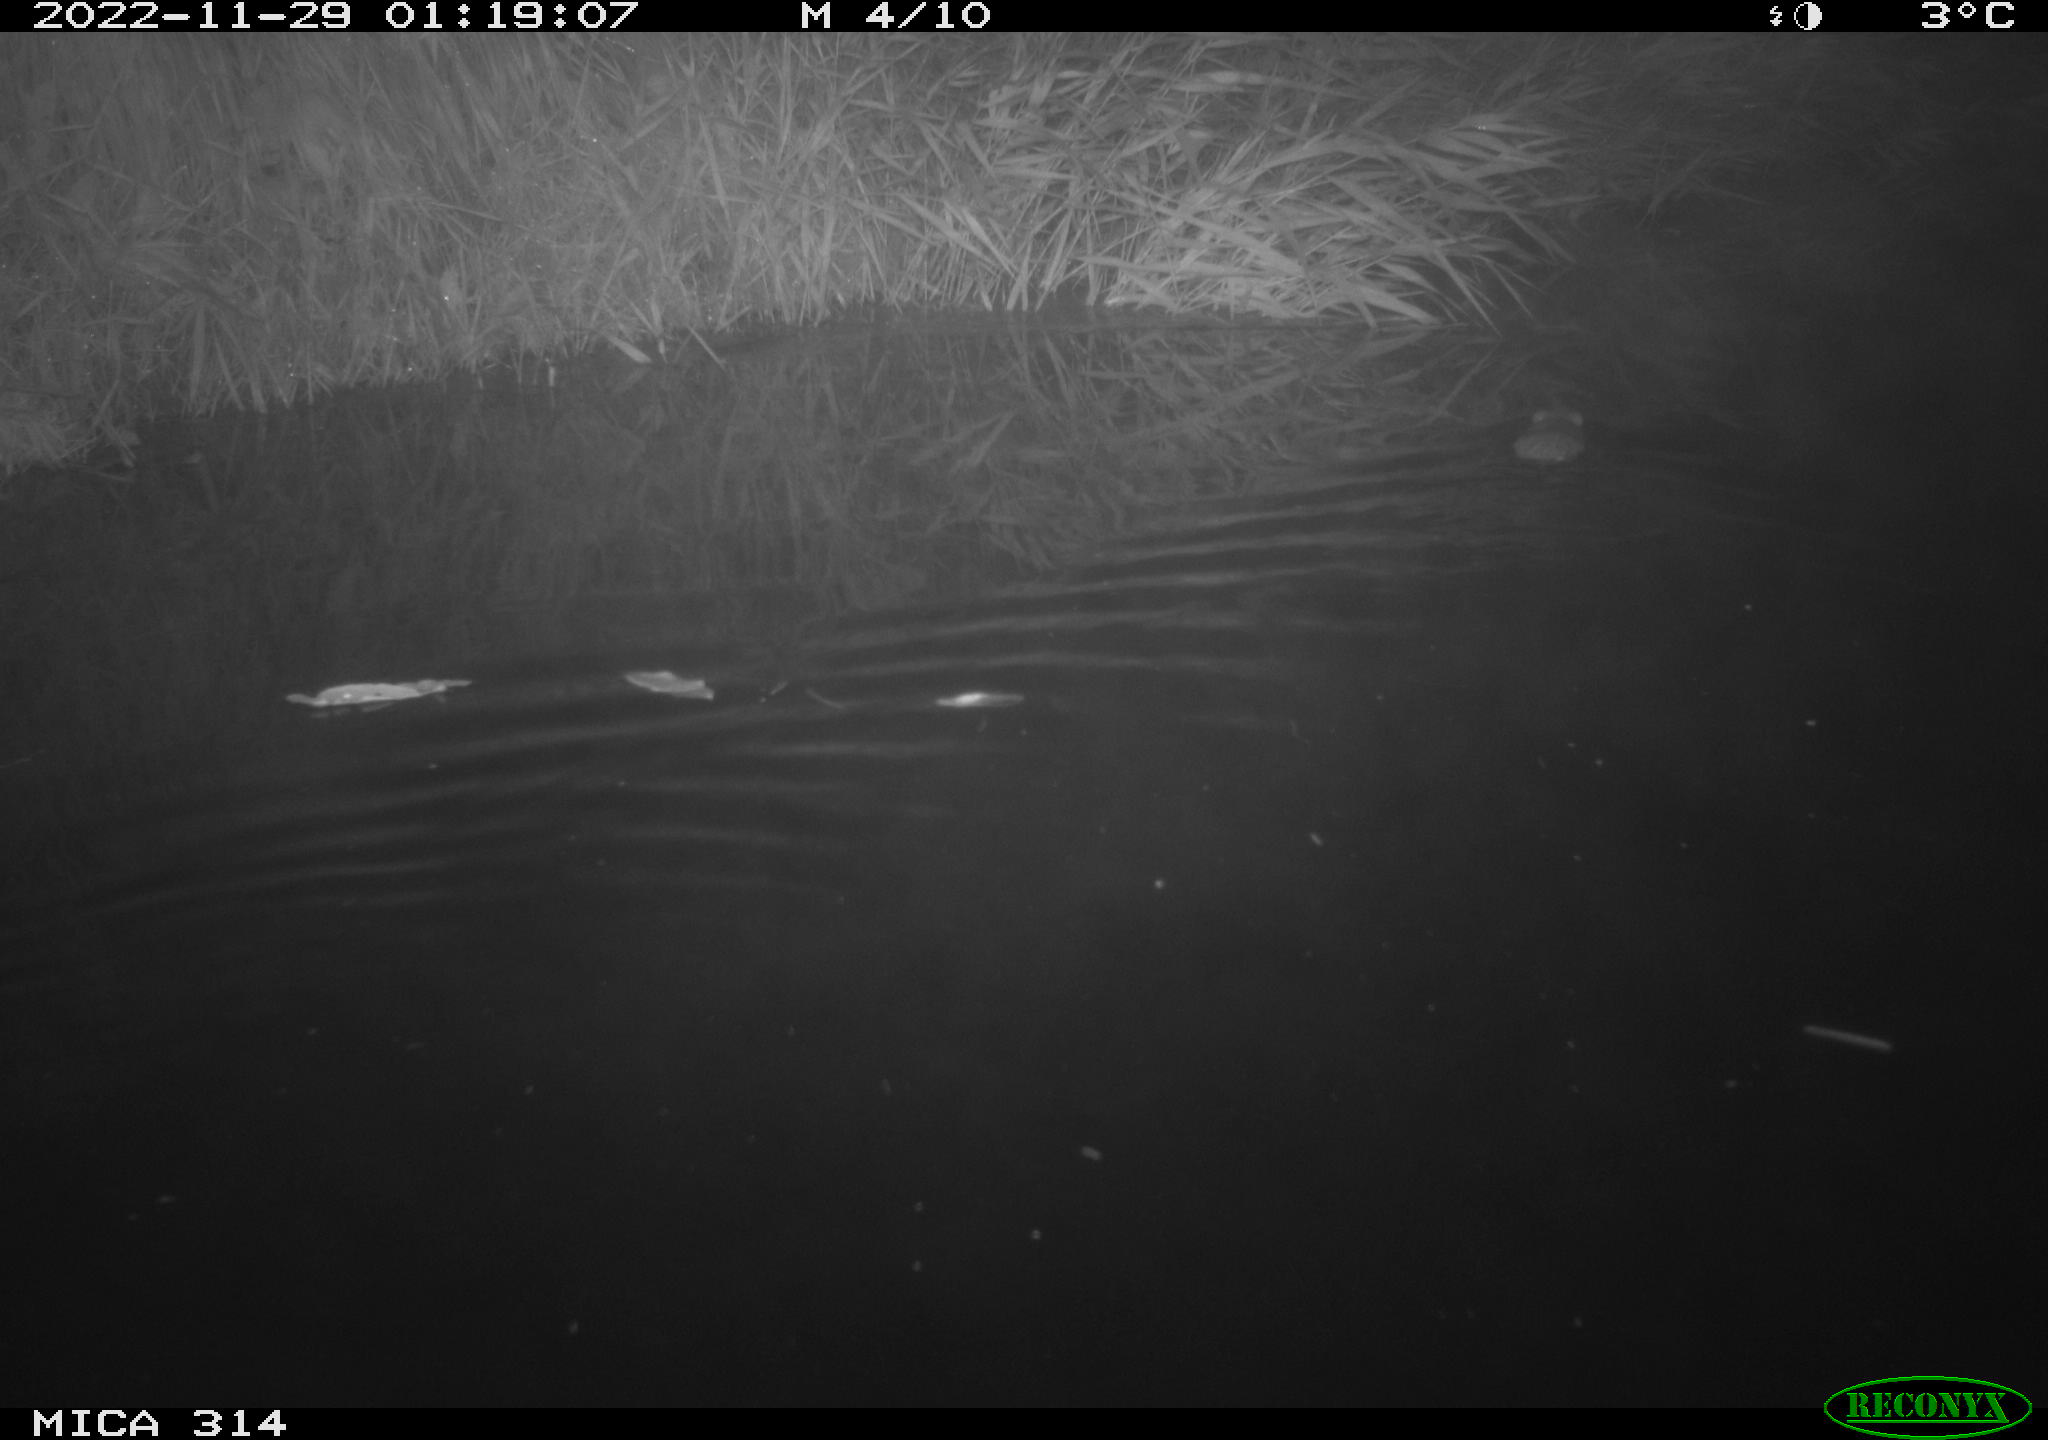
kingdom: Animalia
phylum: Chordata
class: Mammalia
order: Rodentia
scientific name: Rodentia
